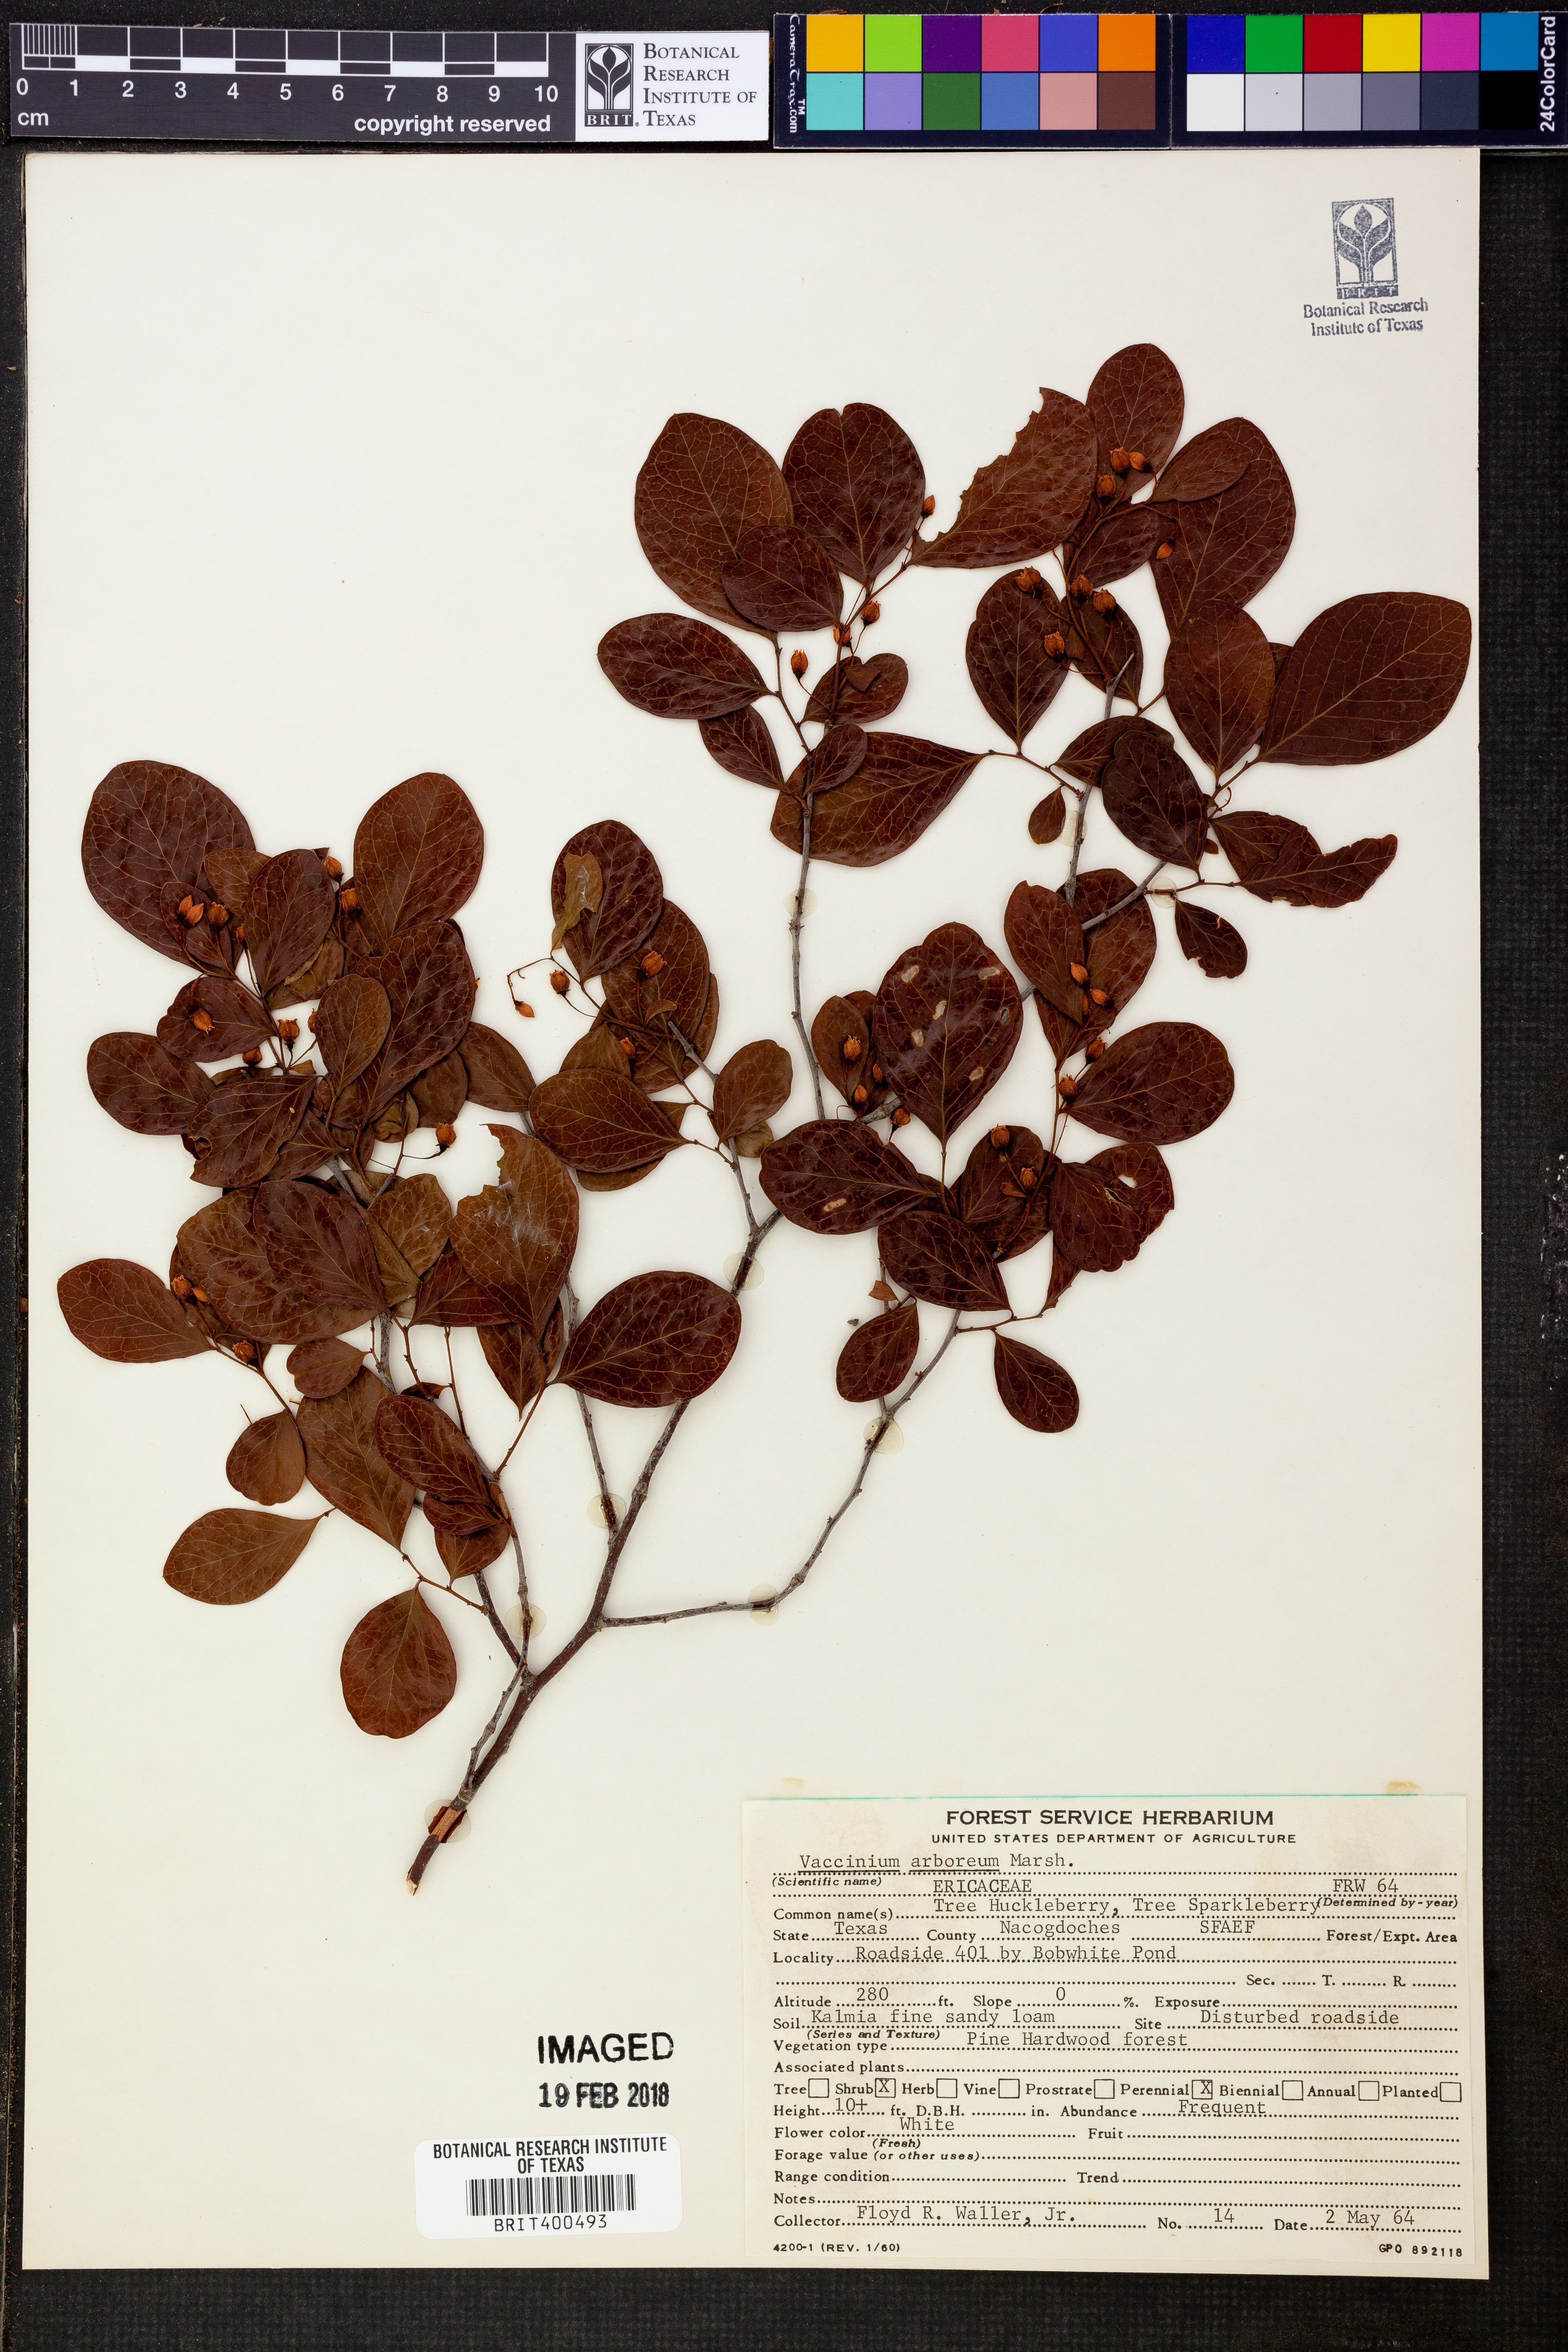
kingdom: Plantae
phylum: Tracheophyta
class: Magnoliopsida
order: Ericales
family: Ericaceae
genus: Vaccinium
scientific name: Vaccinium arboreum
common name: Farkleberry
